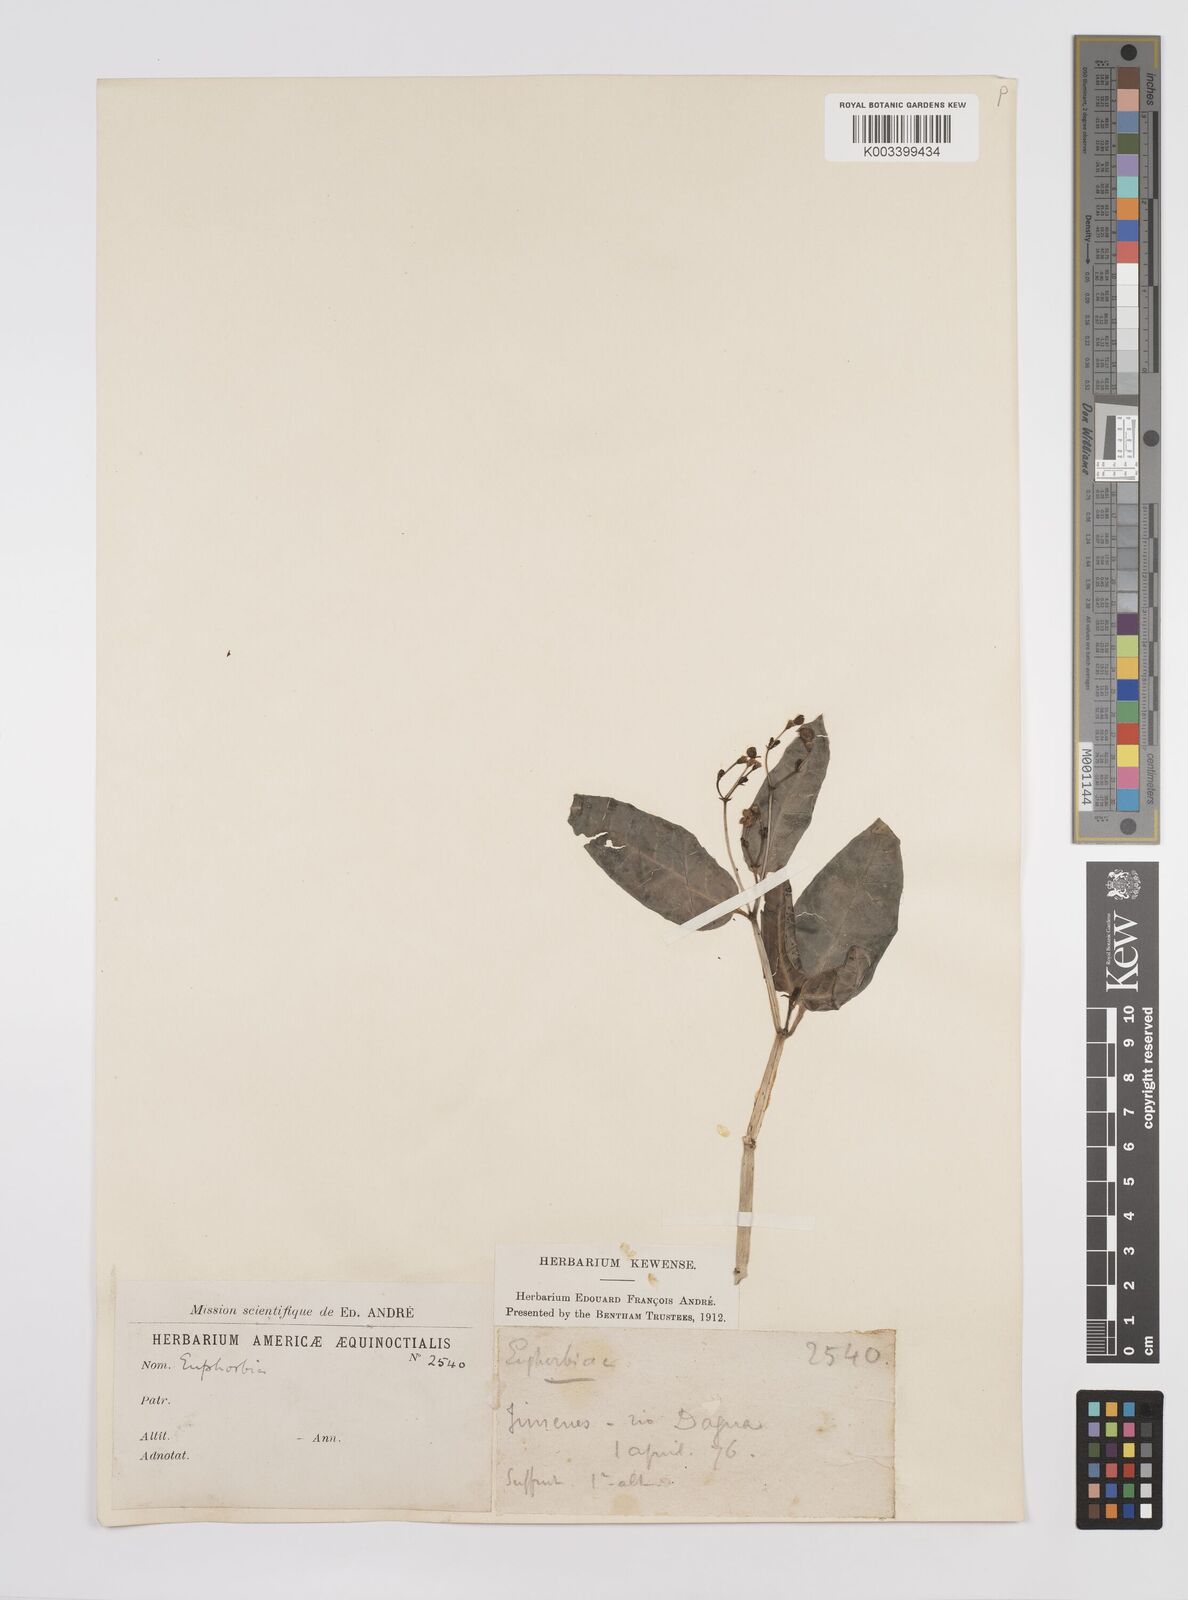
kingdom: Plantae
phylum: Tracheophyta
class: Magnoliopsida
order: Malpighiales
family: Euphorbiaceae
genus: Euphorbia
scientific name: Euphorbia
